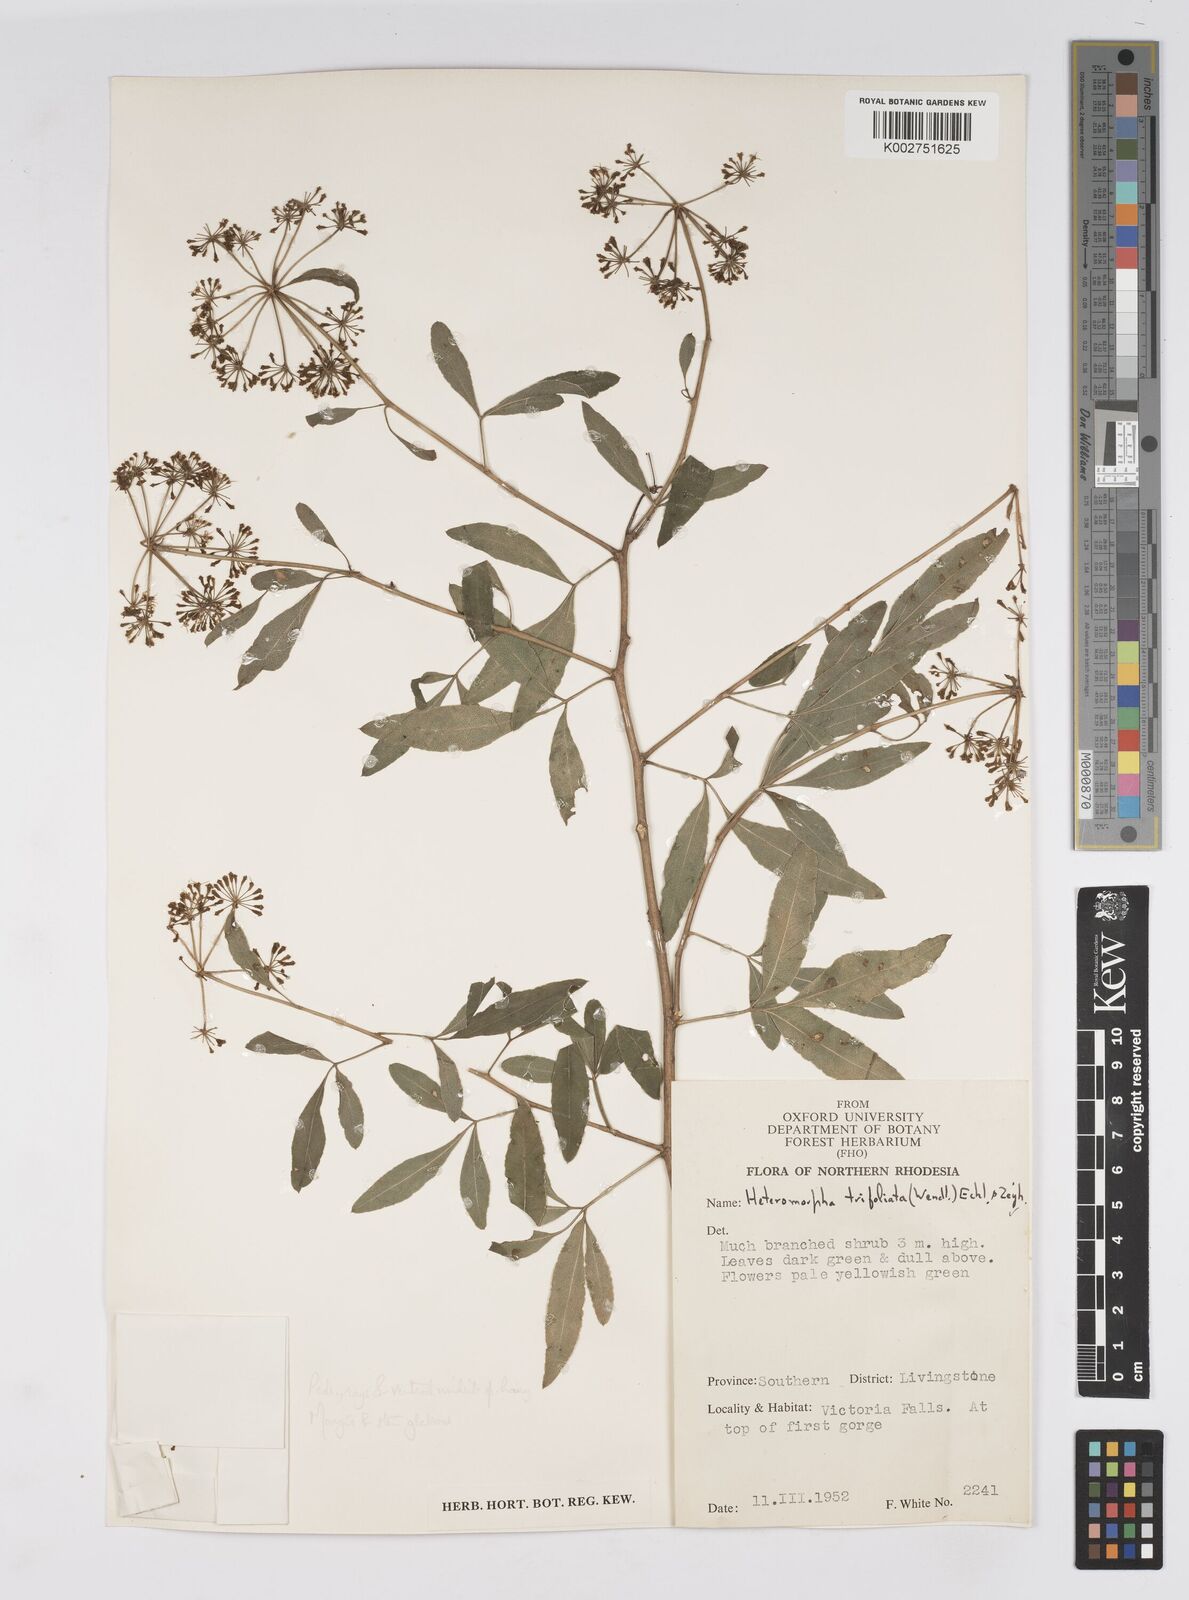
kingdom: Plantae
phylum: Tracheophyta
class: Magnoliopsida
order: Apiales
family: Apiaceae
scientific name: Apiaceae
